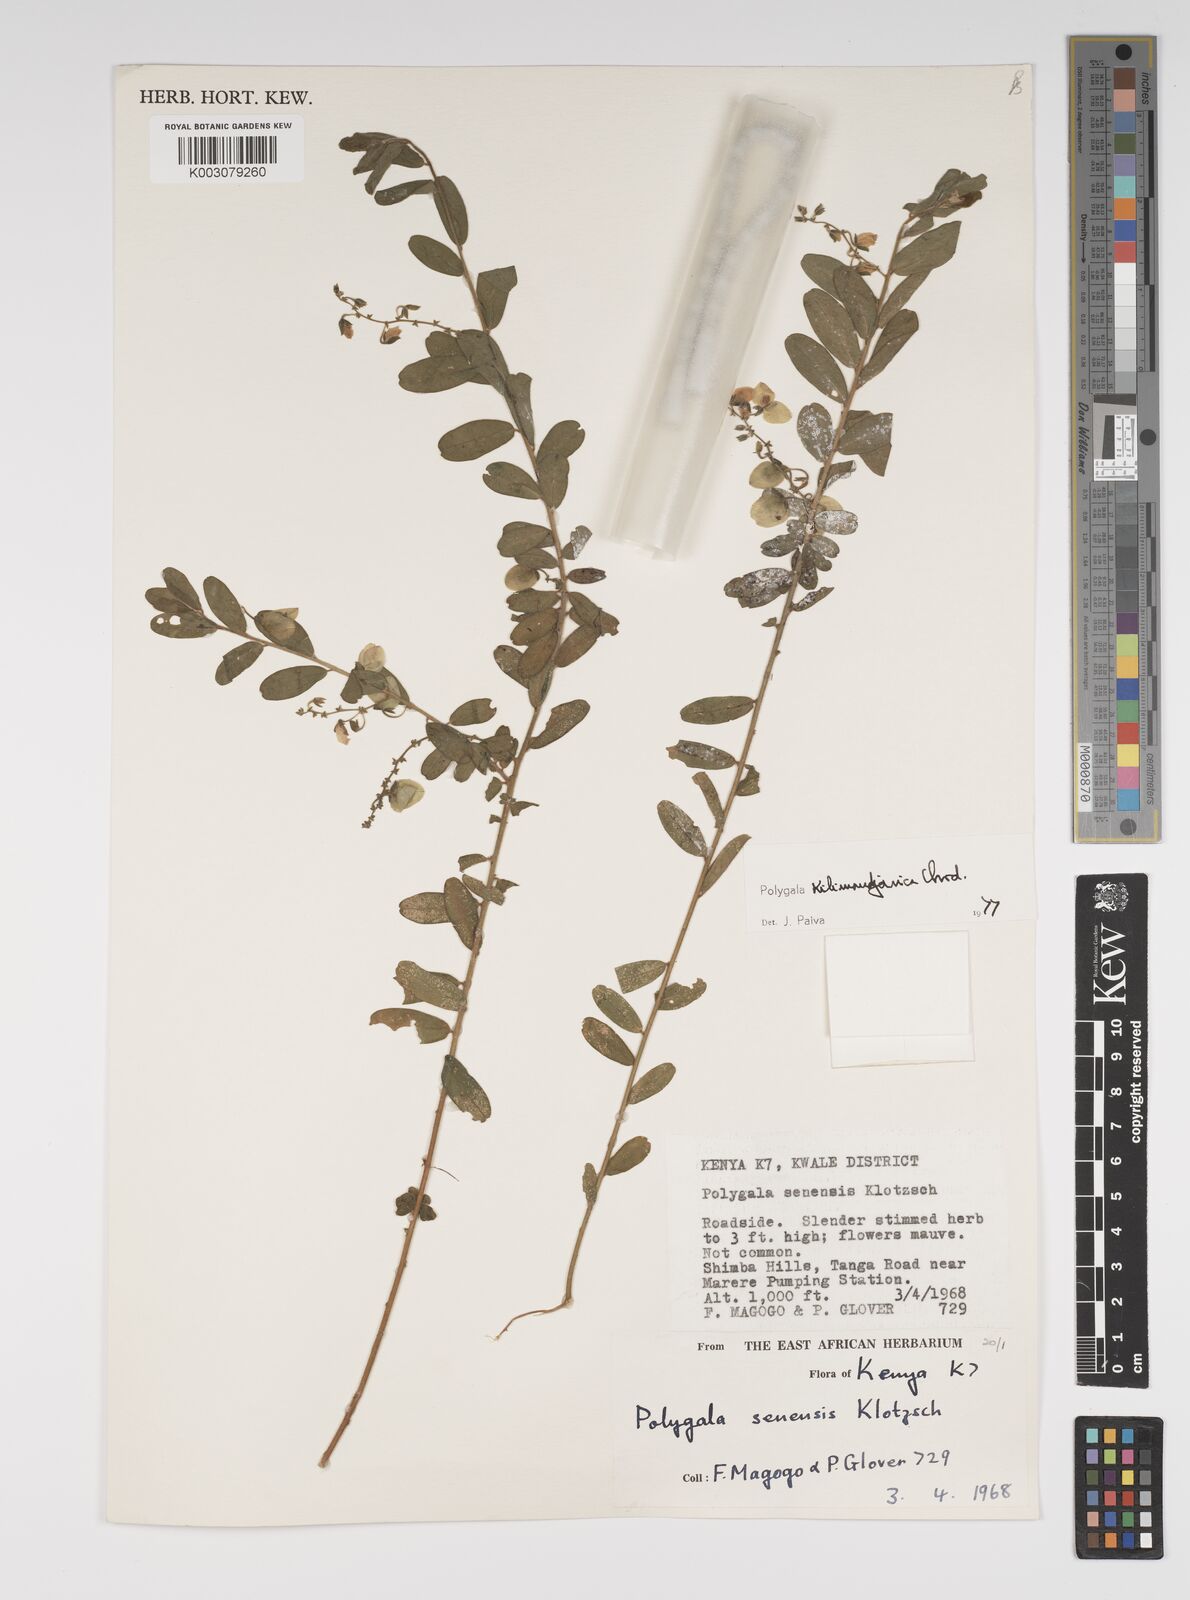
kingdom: Plantae
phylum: Tracheophyta
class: Magnoliopsida
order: Fabales
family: Polygalaceae
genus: Polygala
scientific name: Polygala kilimandjarica
